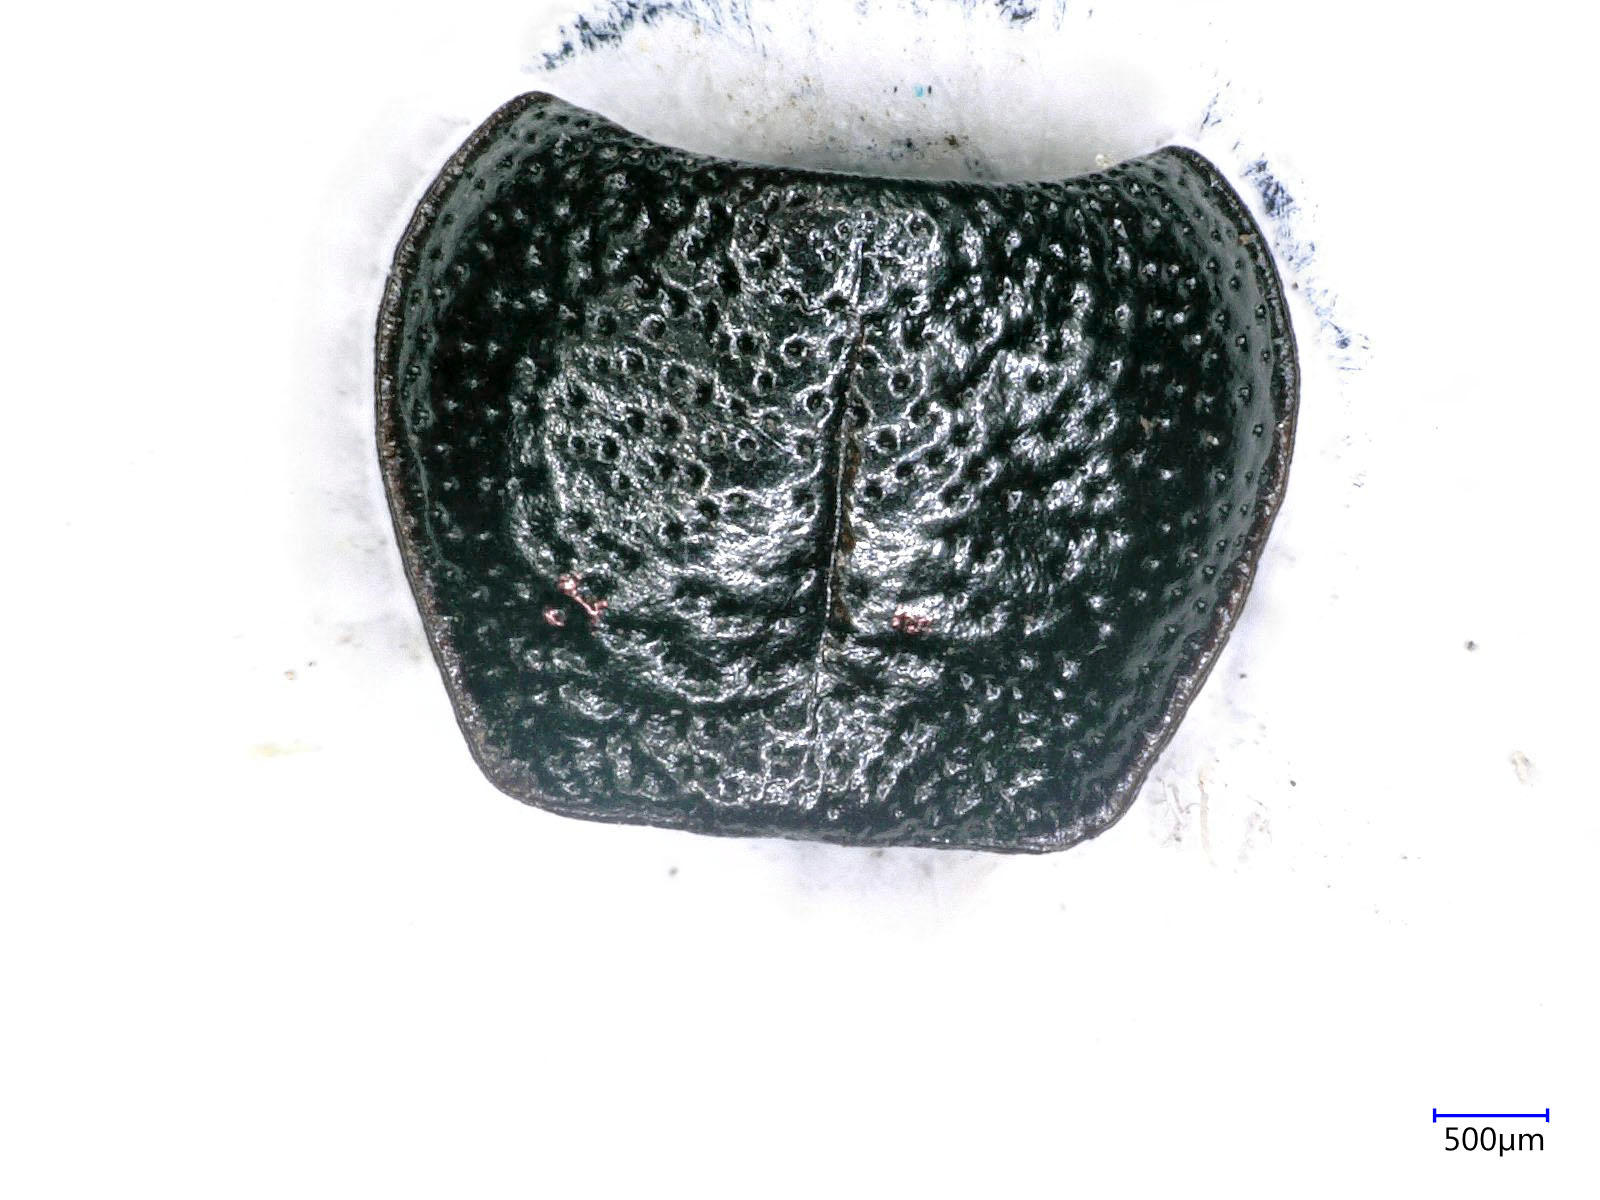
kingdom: Animalia
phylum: Arthropoda
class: Insecta
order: Coleoptera
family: Carabidae
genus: Dicheirus
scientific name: Dicheirus dilatatus
